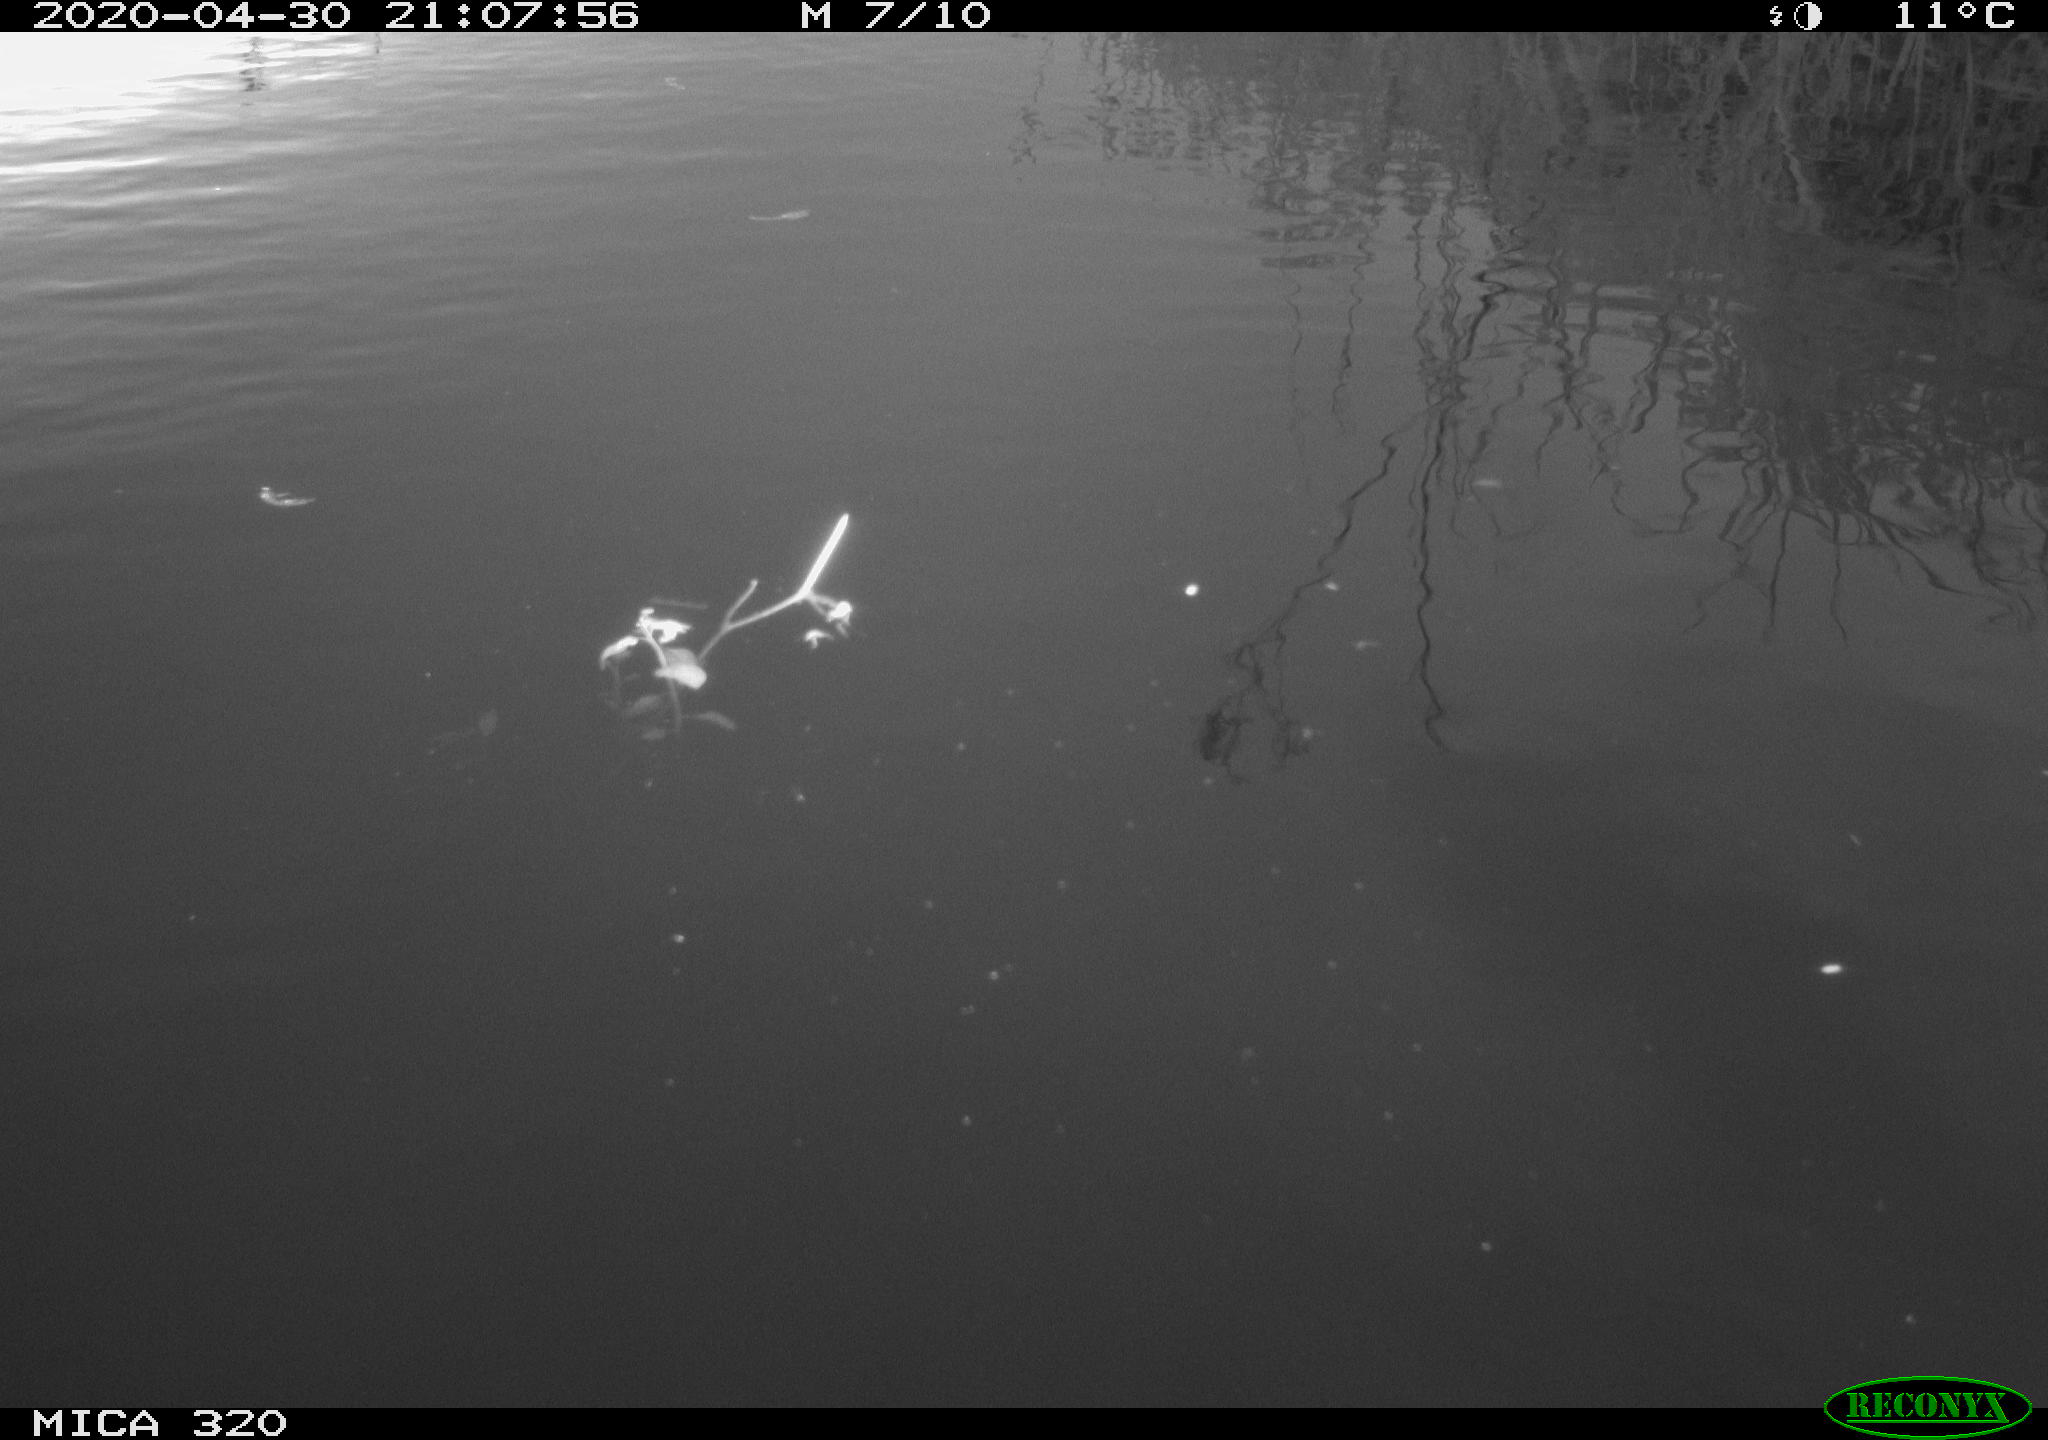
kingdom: Animalia
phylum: Chordata
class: Aves
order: Gruiformes
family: Rallidae
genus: Gallinula
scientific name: Gallinula chloropus
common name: Common moorhen
